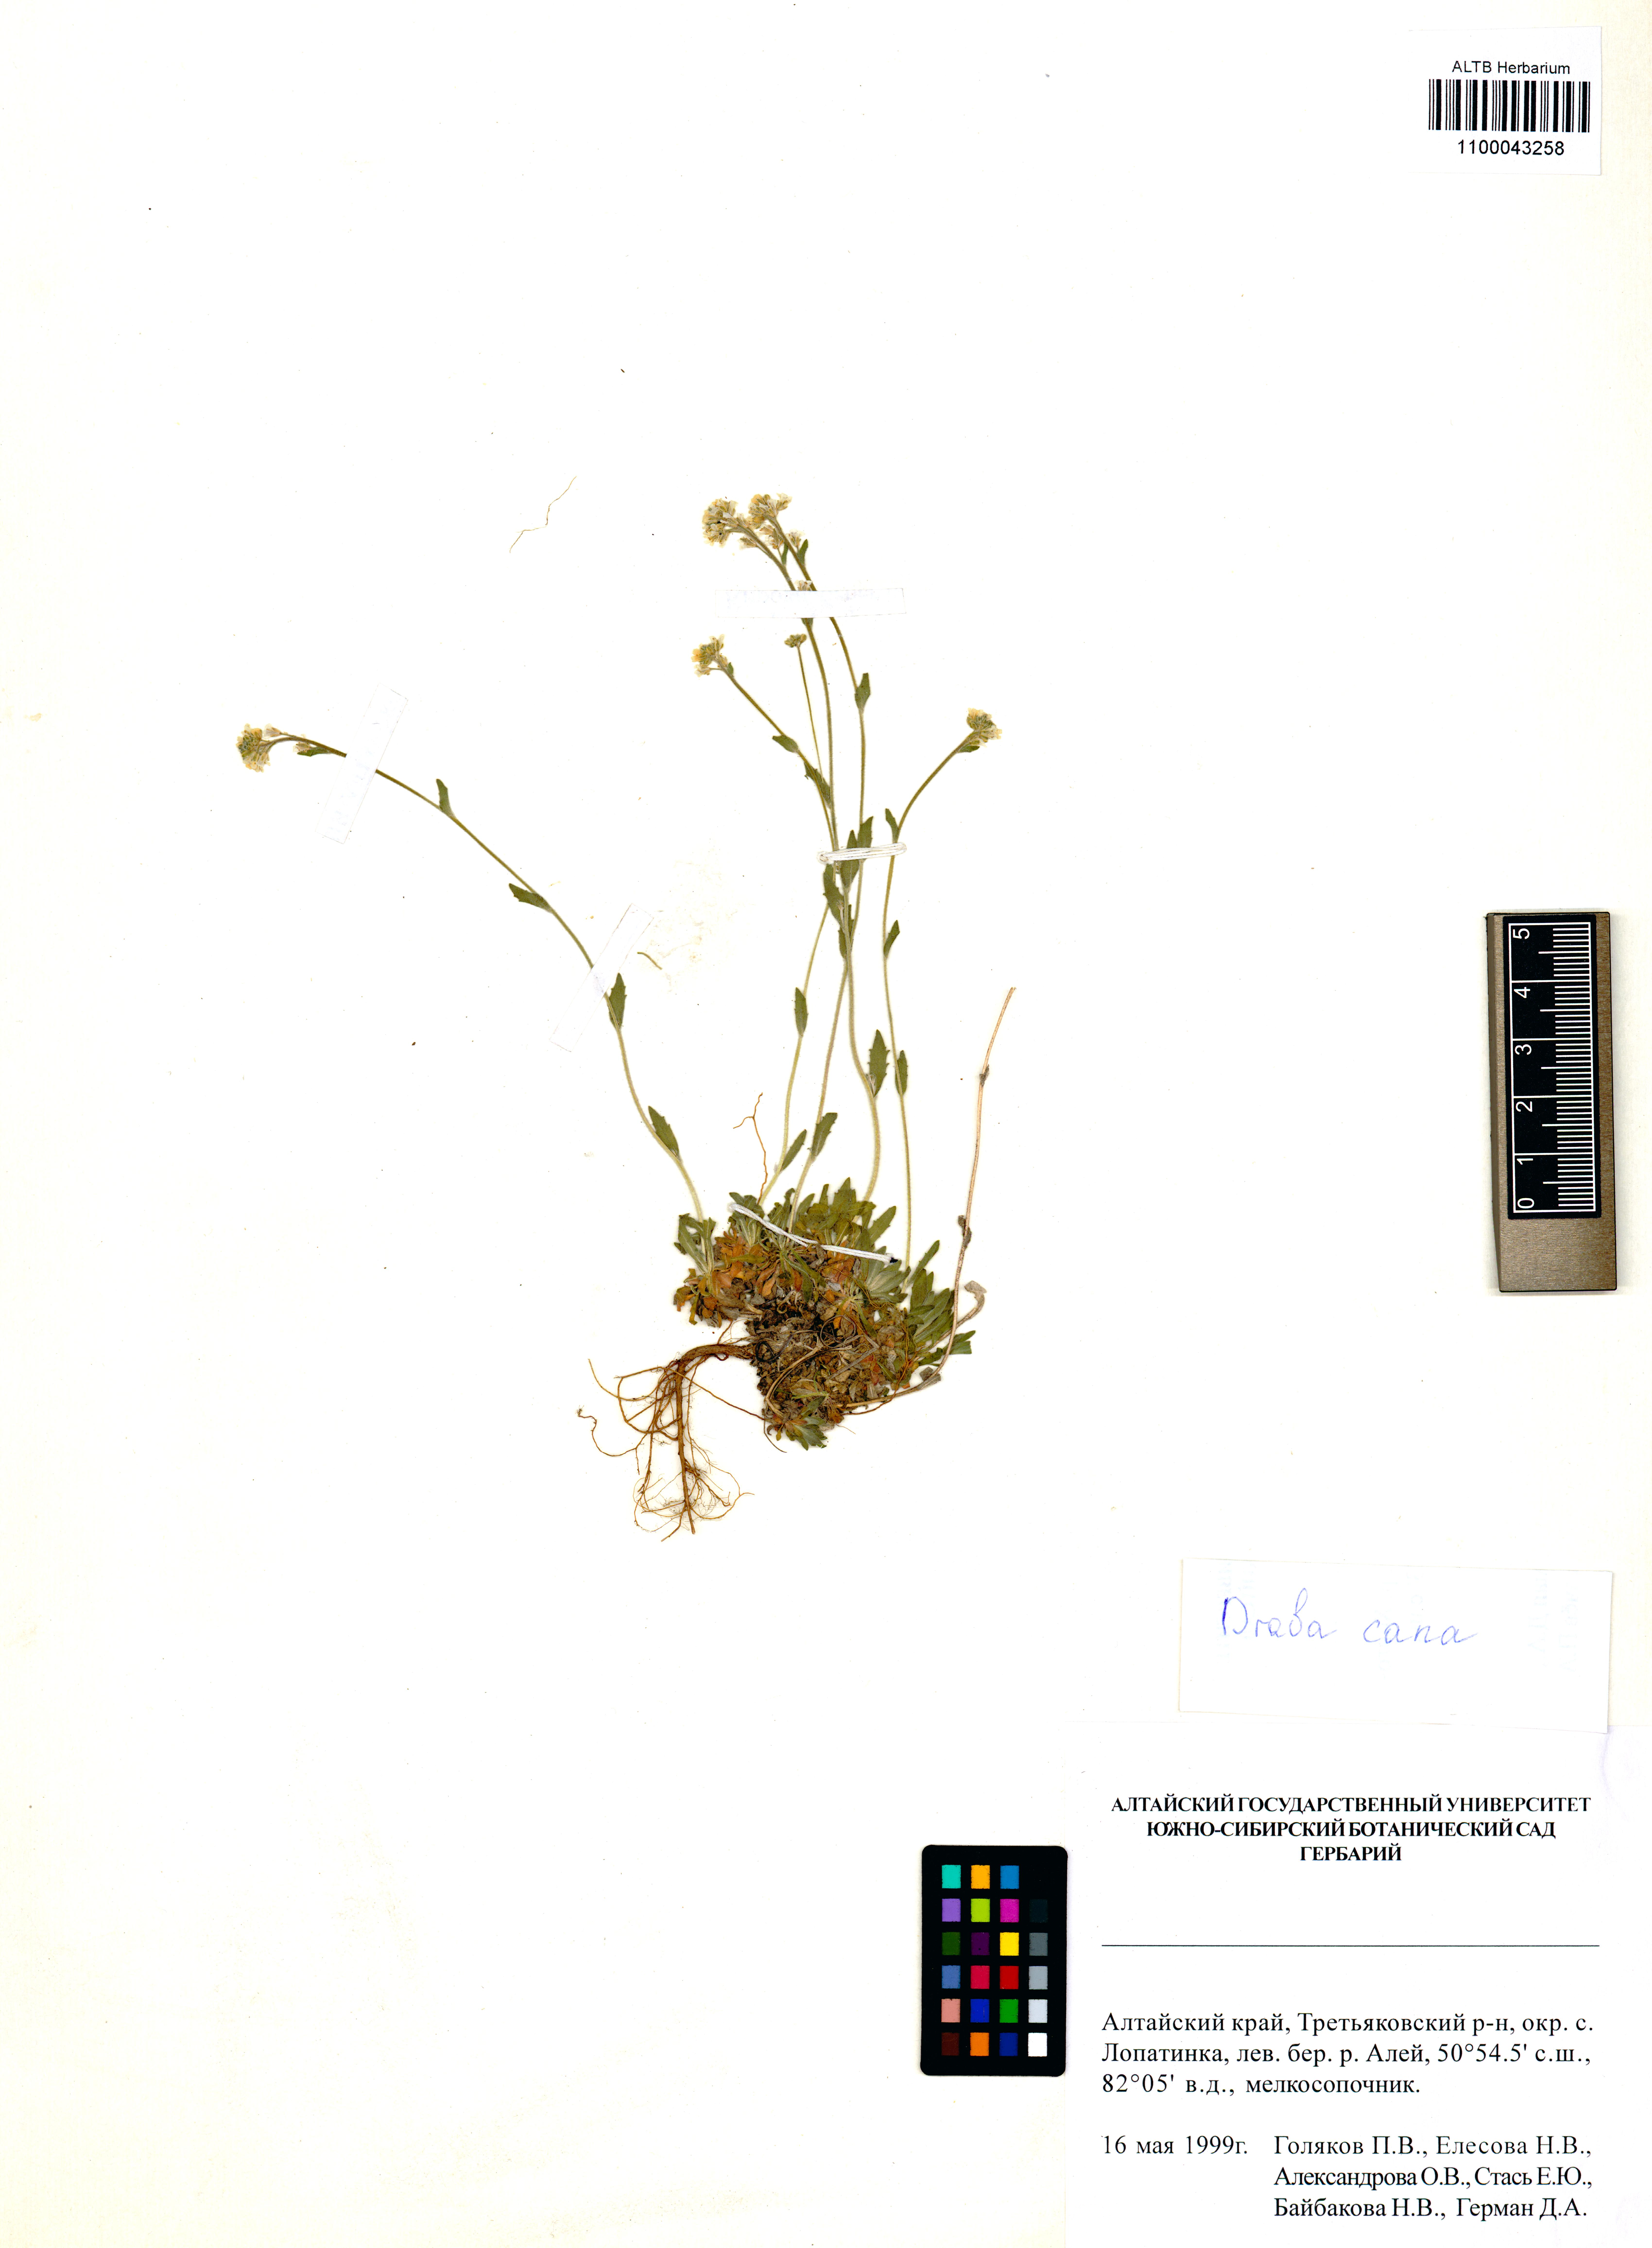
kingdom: Plantae
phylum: Tracheophyta
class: Magnoliopsida
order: Brassicales
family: Brassicaceae
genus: Draba
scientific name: Draba cana
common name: Hoary draba
